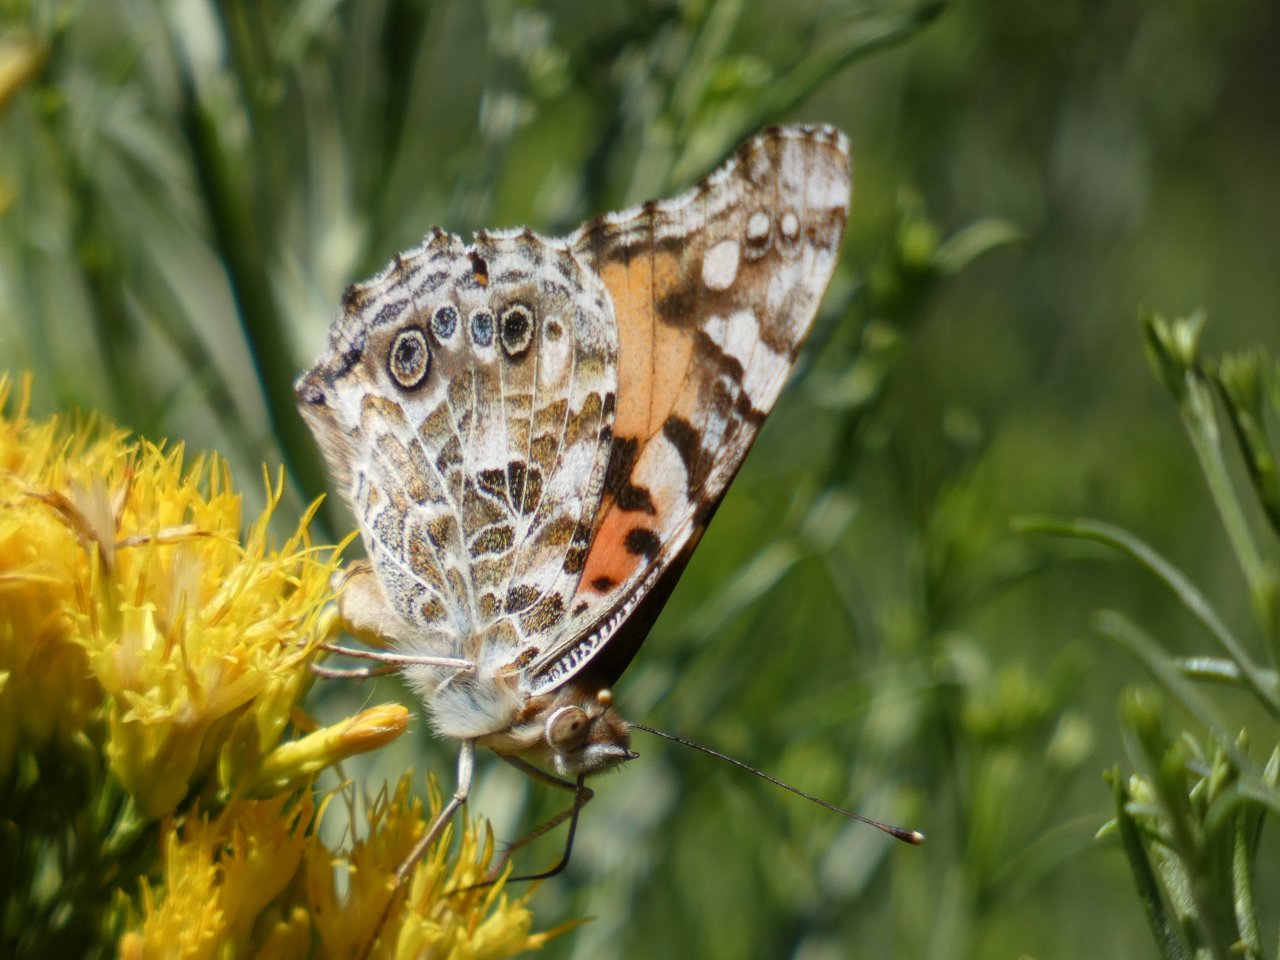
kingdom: Animalia
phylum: Arthropoda
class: Insecta
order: Lepidoptera
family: Nymphalidae
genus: Vanessa
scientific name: Vanessa cardui
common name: Painted Lady
